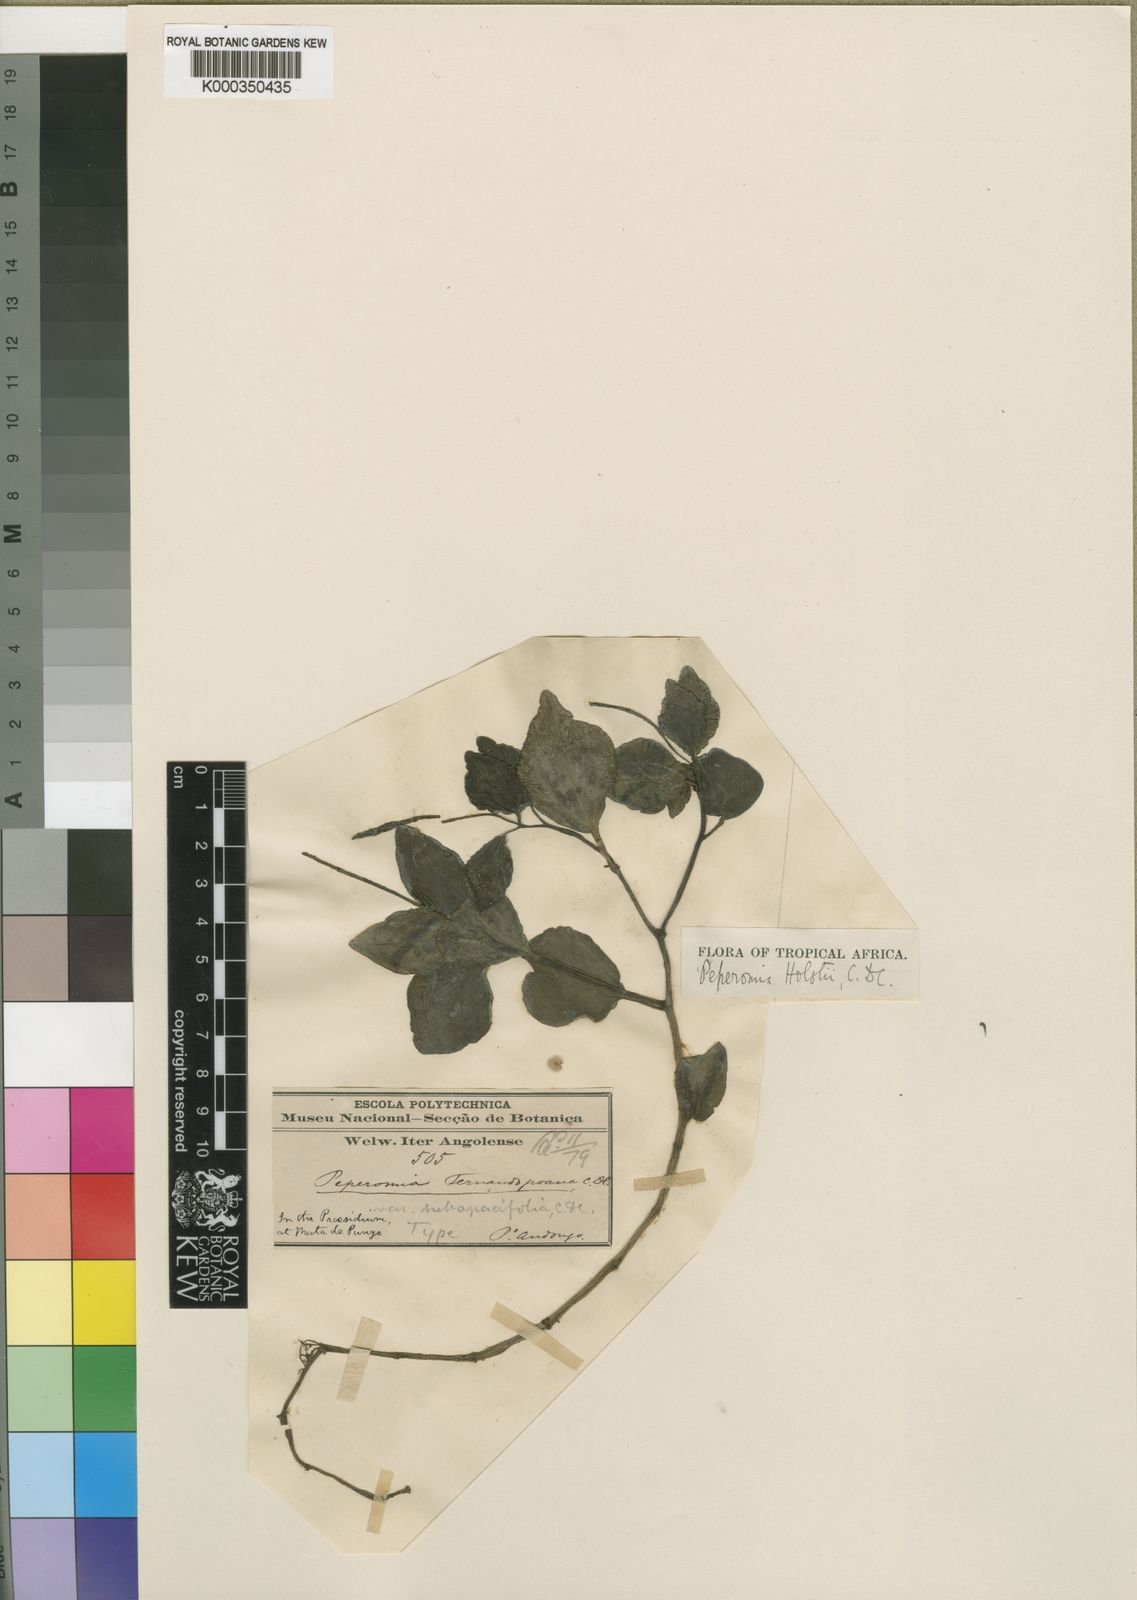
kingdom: Plantae
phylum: Tracheophyta
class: Magnoliopsida
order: Piperales
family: Piperaceae
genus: Peperomia
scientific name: Peperomia molleri
